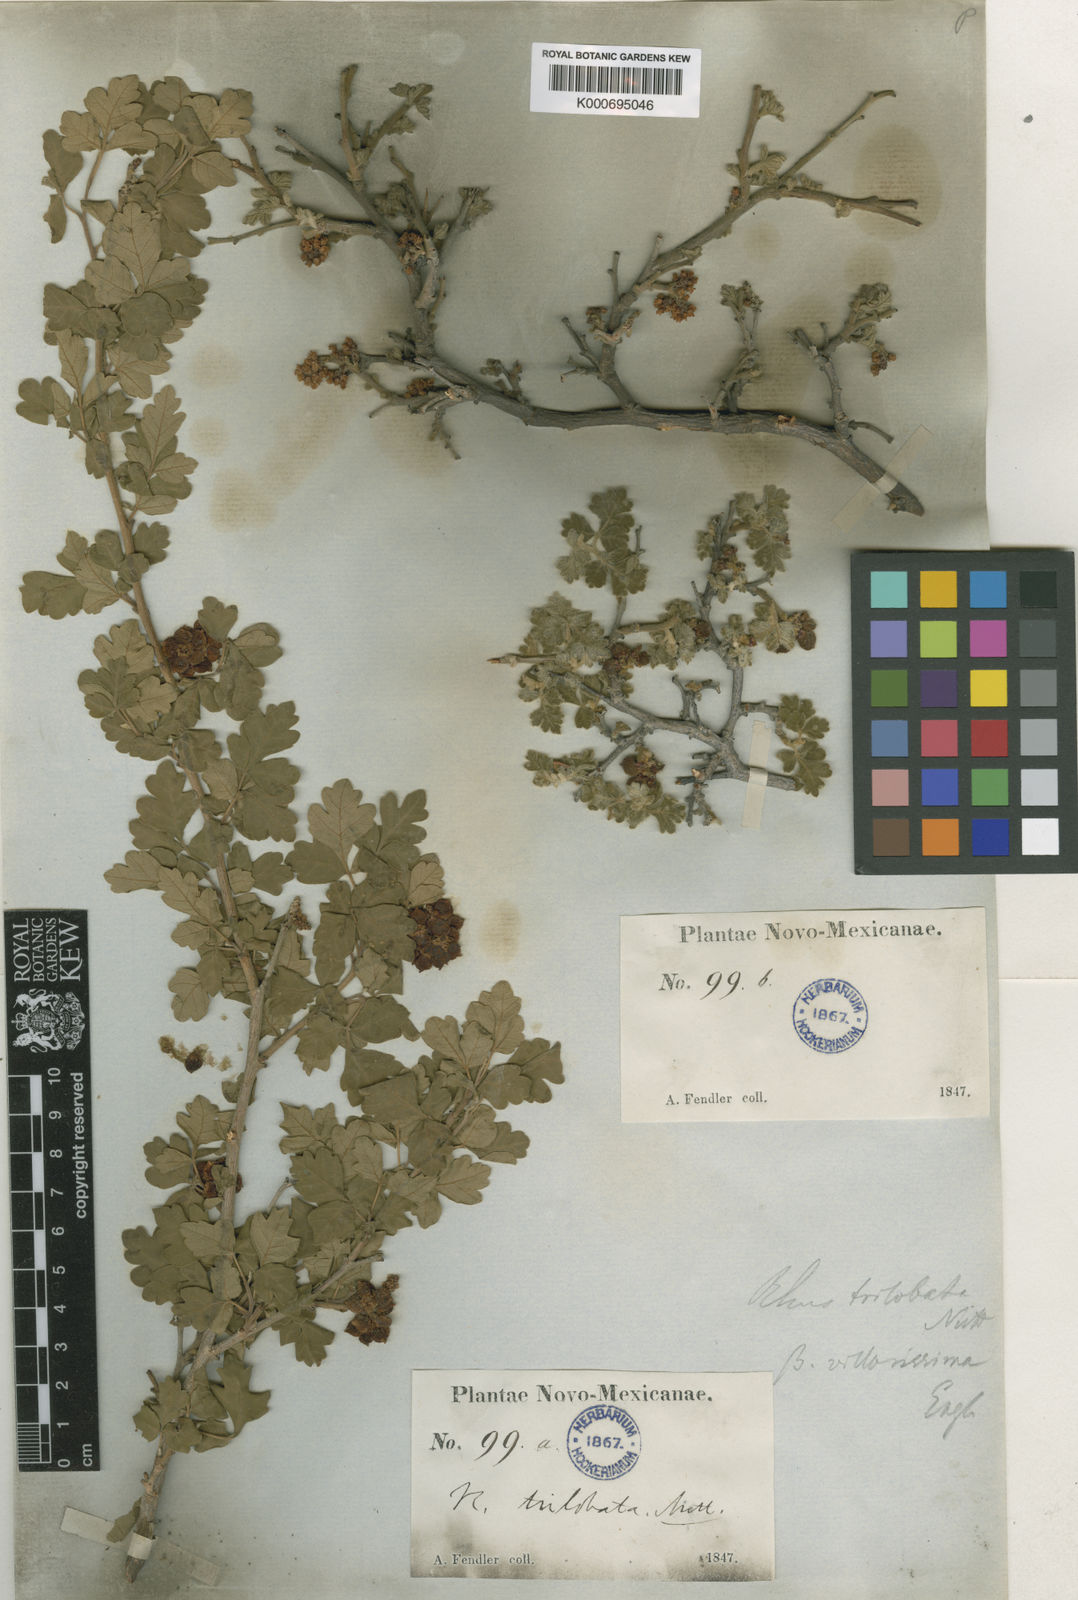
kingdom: Plantae
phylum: Tracheophyta
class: Magnoliopsida
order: Sapindales
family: Anacardiaceae
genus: Rhus
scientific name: Rhus trilobata
